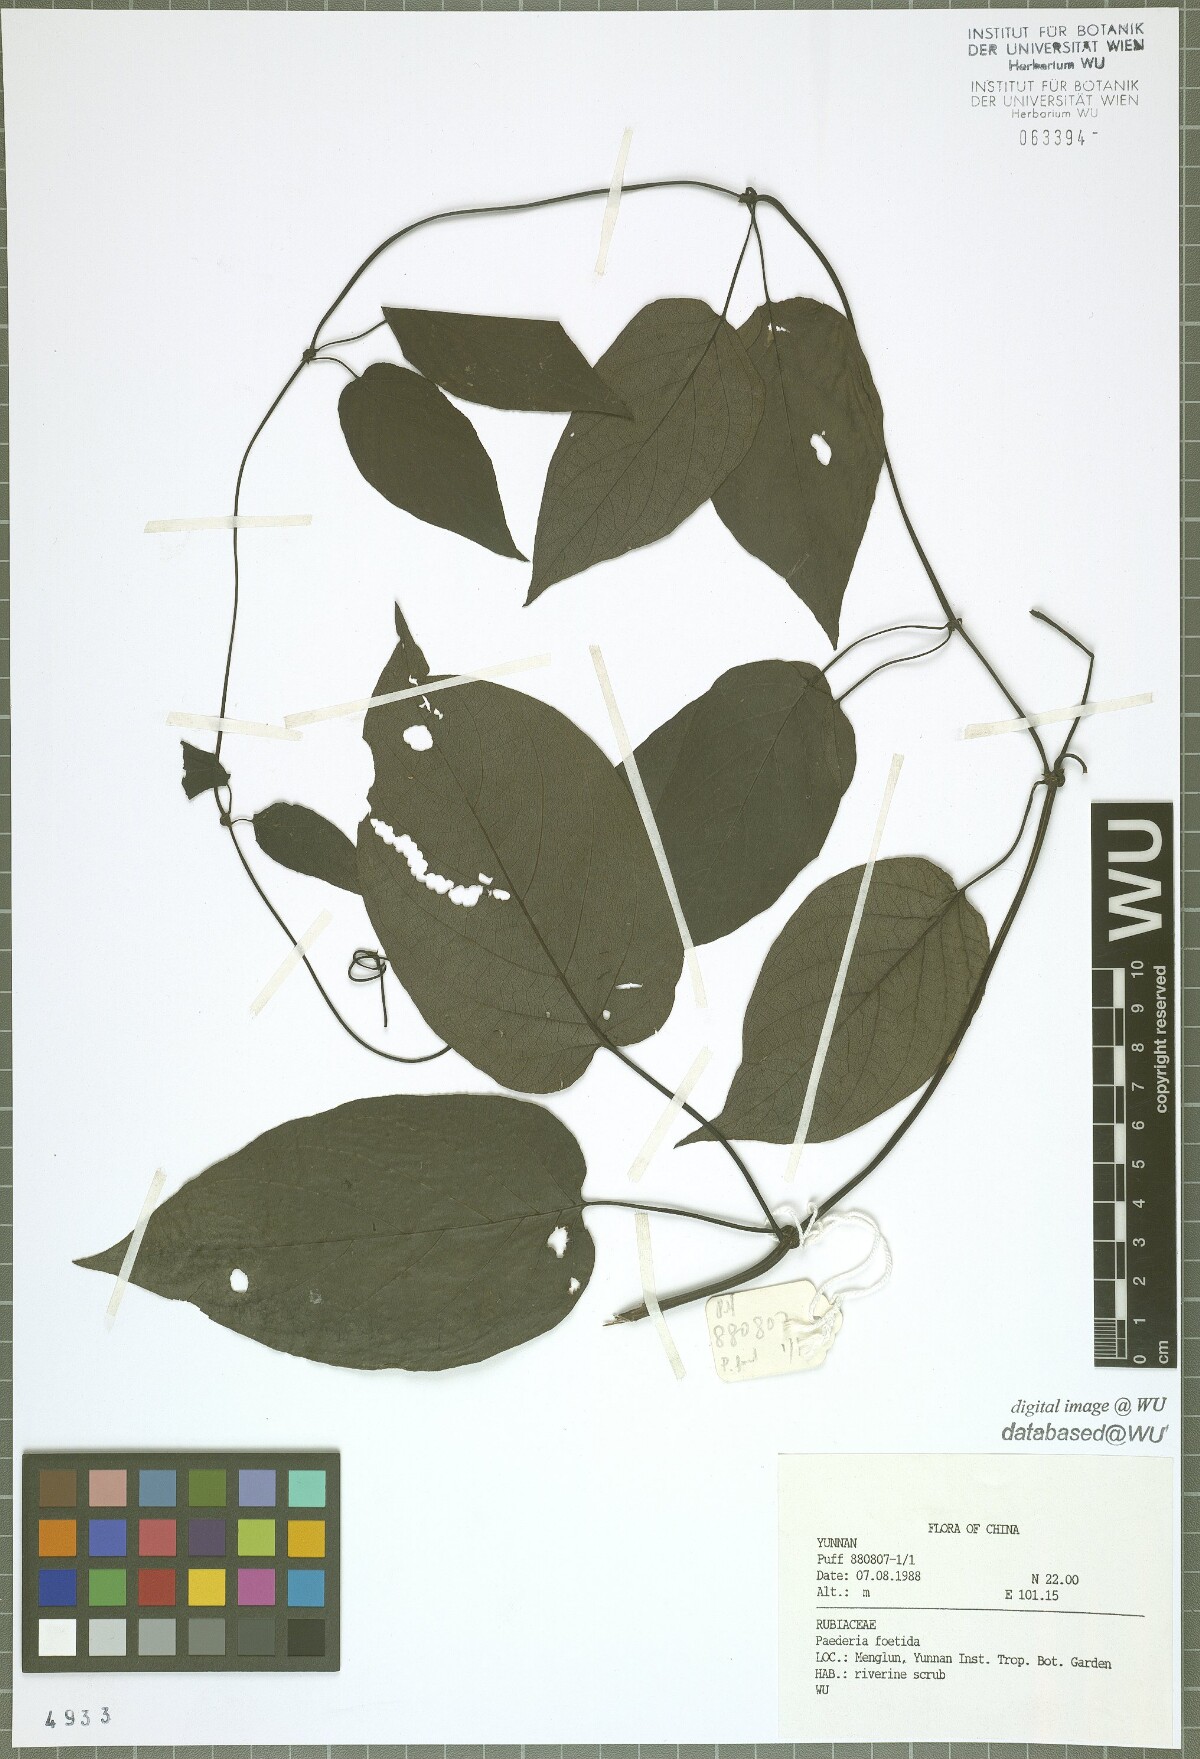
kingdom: Plantae
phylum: Tracheophyta
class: Magnoliopsida
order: Gentianales
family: Rubiaceae
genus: Paederia
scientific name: Paederia foetida
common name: Stinkvine
